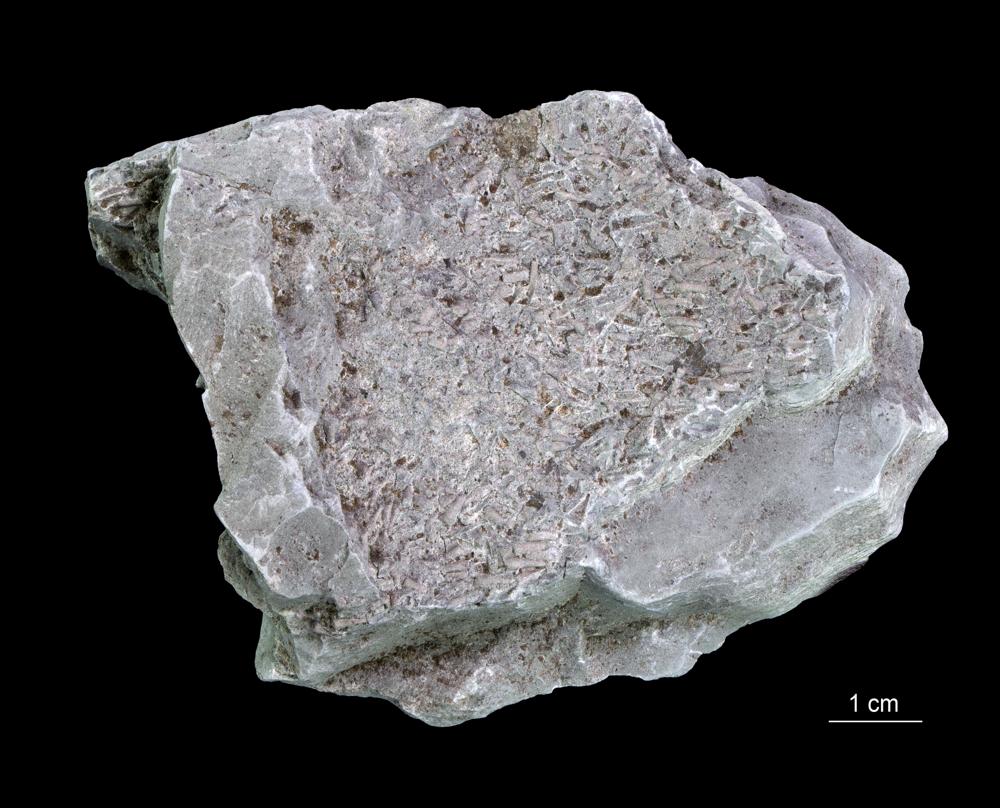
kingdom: Animalia
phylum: Annelida
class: Polychaeta
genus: Volborthella
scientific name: Volborthella tenuis
